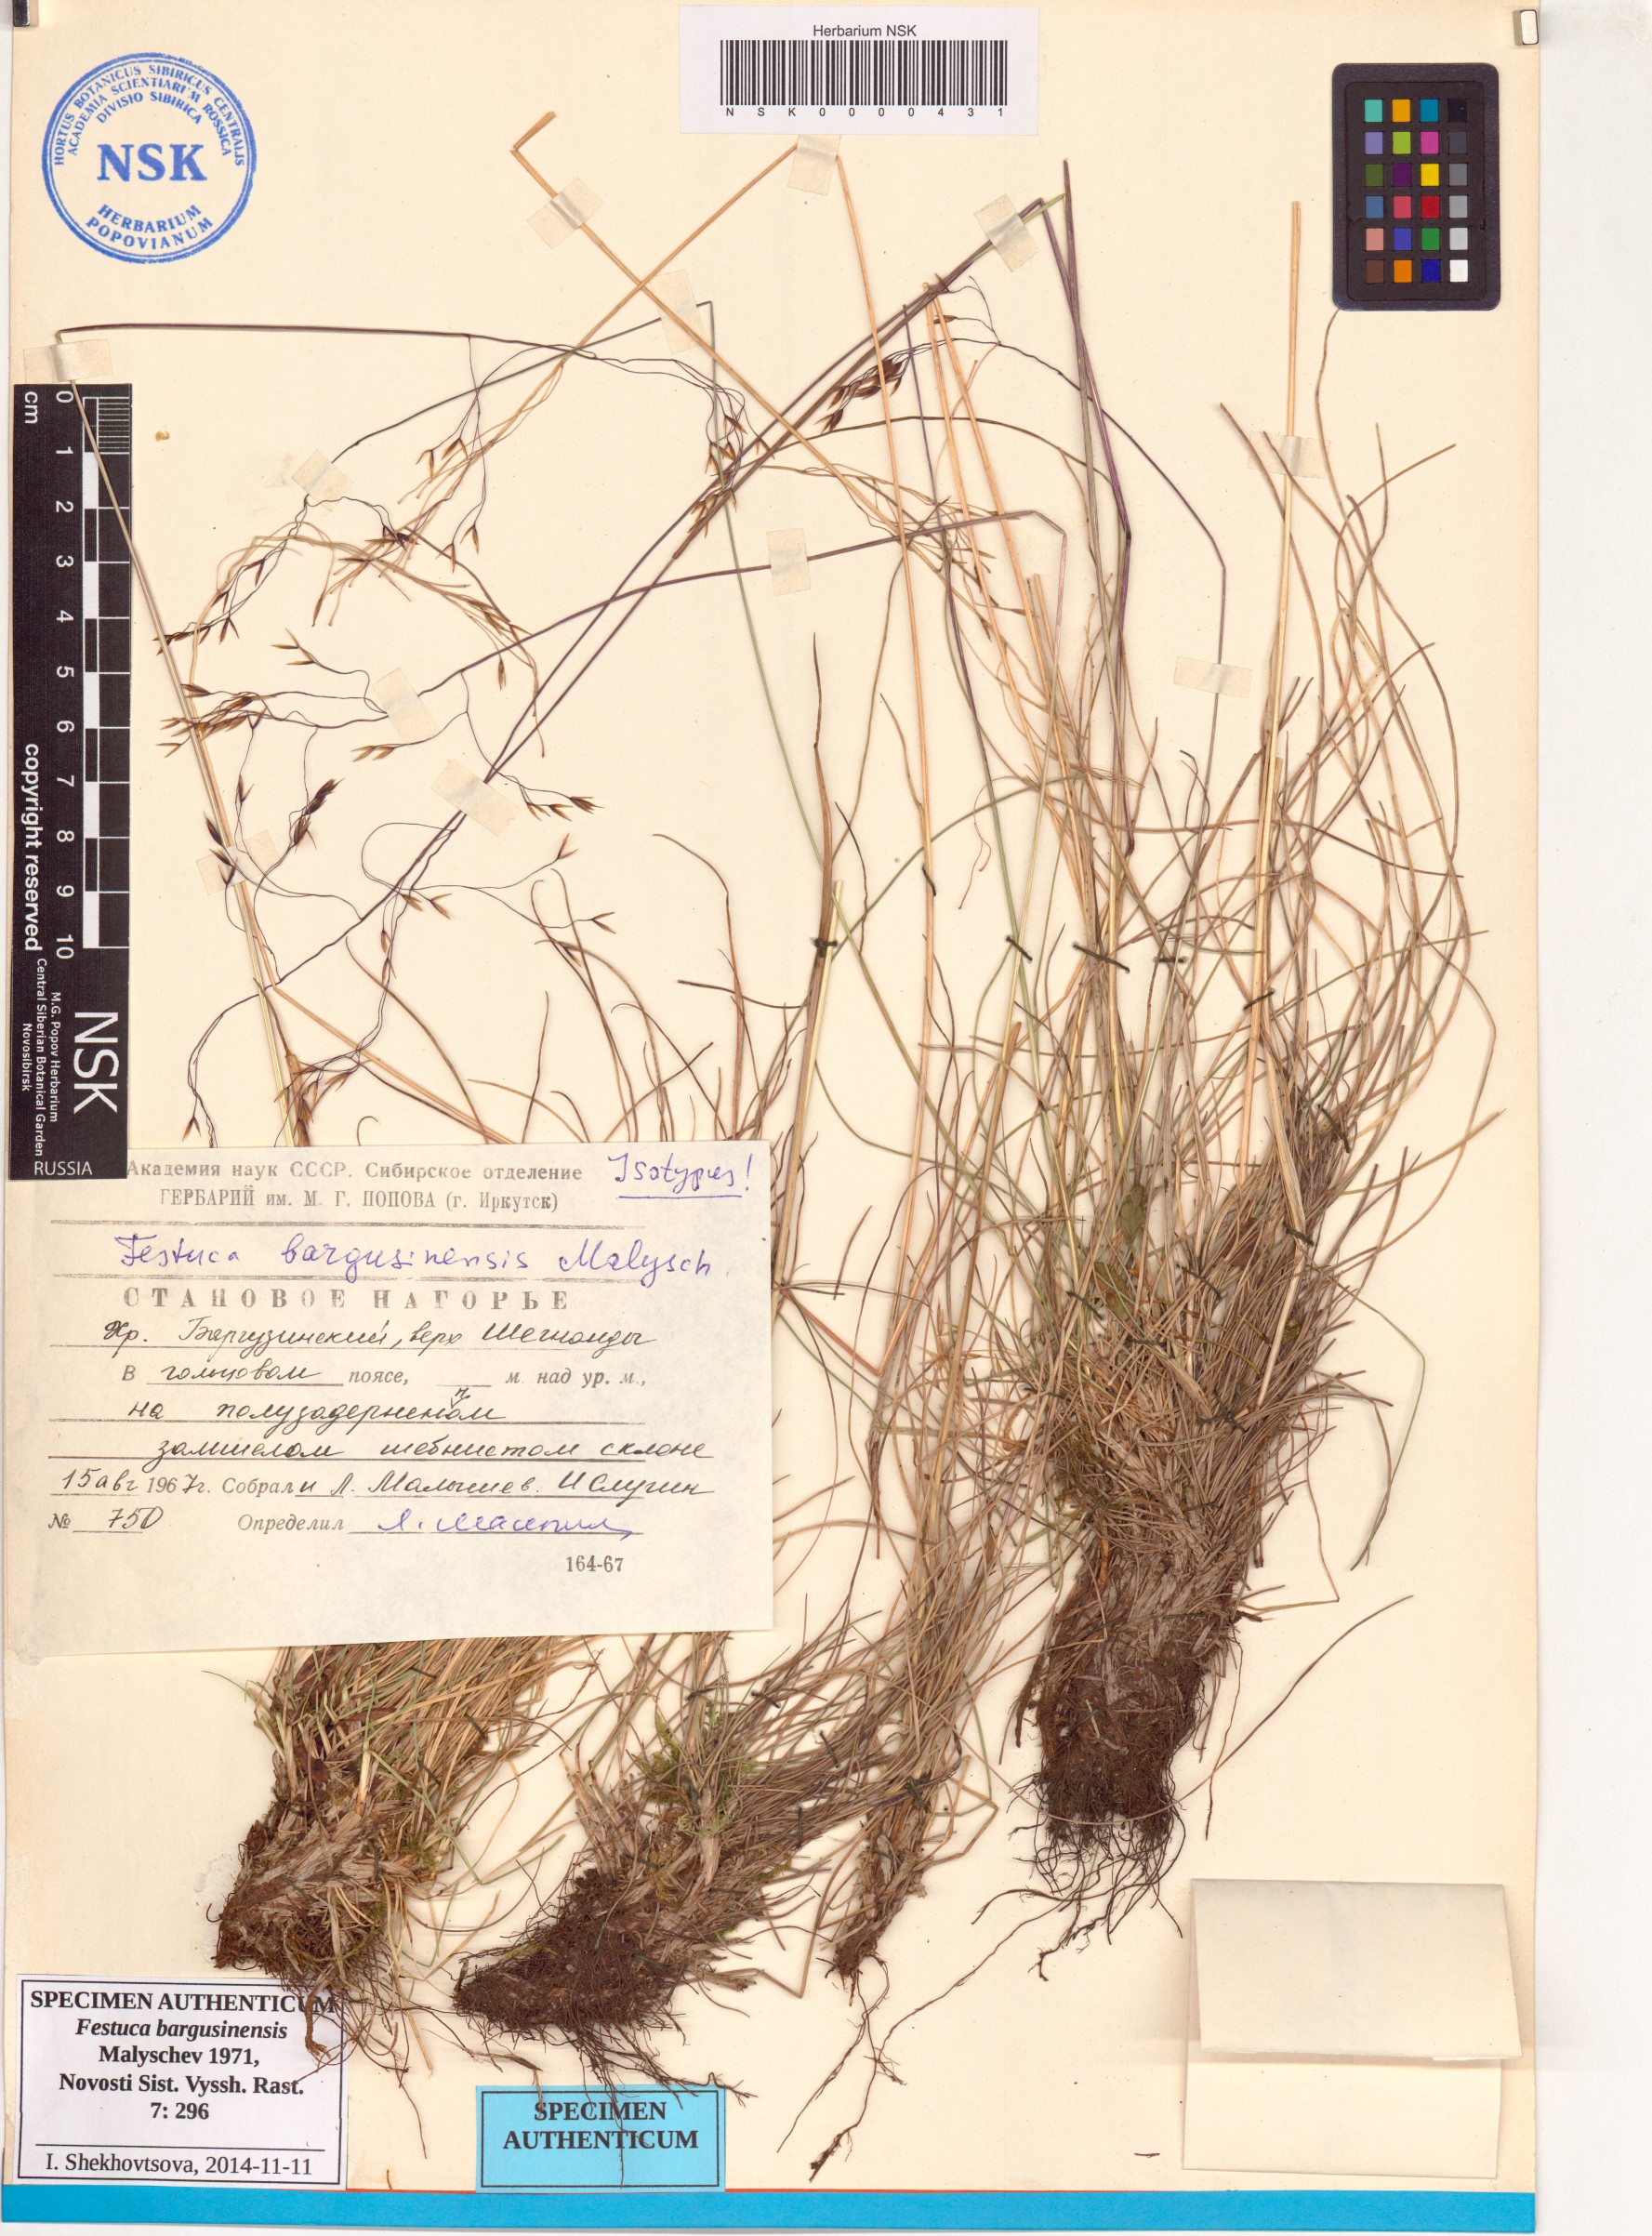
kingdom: Plantae
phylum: Tracheophyta
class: Liliopsida
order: Poales
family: Poaceae
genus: Festuca
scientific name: Festuca bargusinensis
